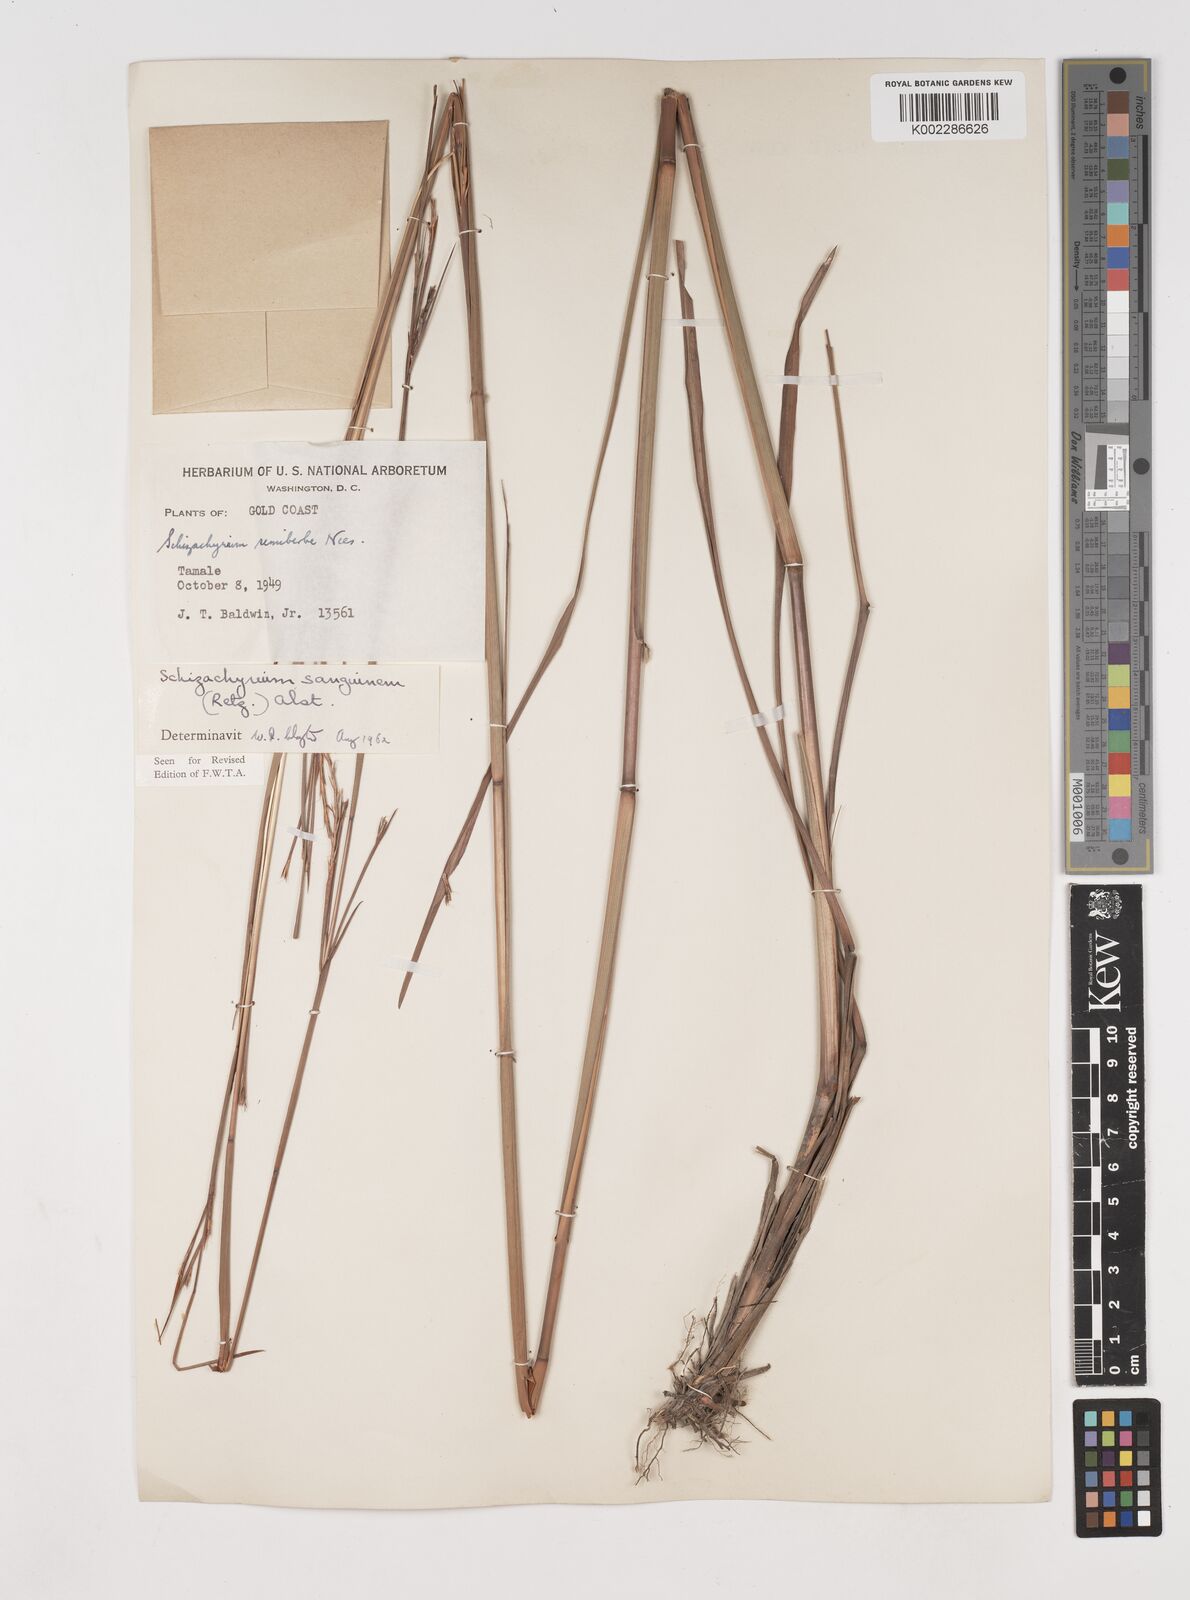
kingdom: Plantae
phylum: Tracheophyta
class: Liliopsida
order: Poales
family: Poaceae
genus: Schizachyrium
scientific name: Schizachyrium sanguineum
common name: Crimson bluestem
